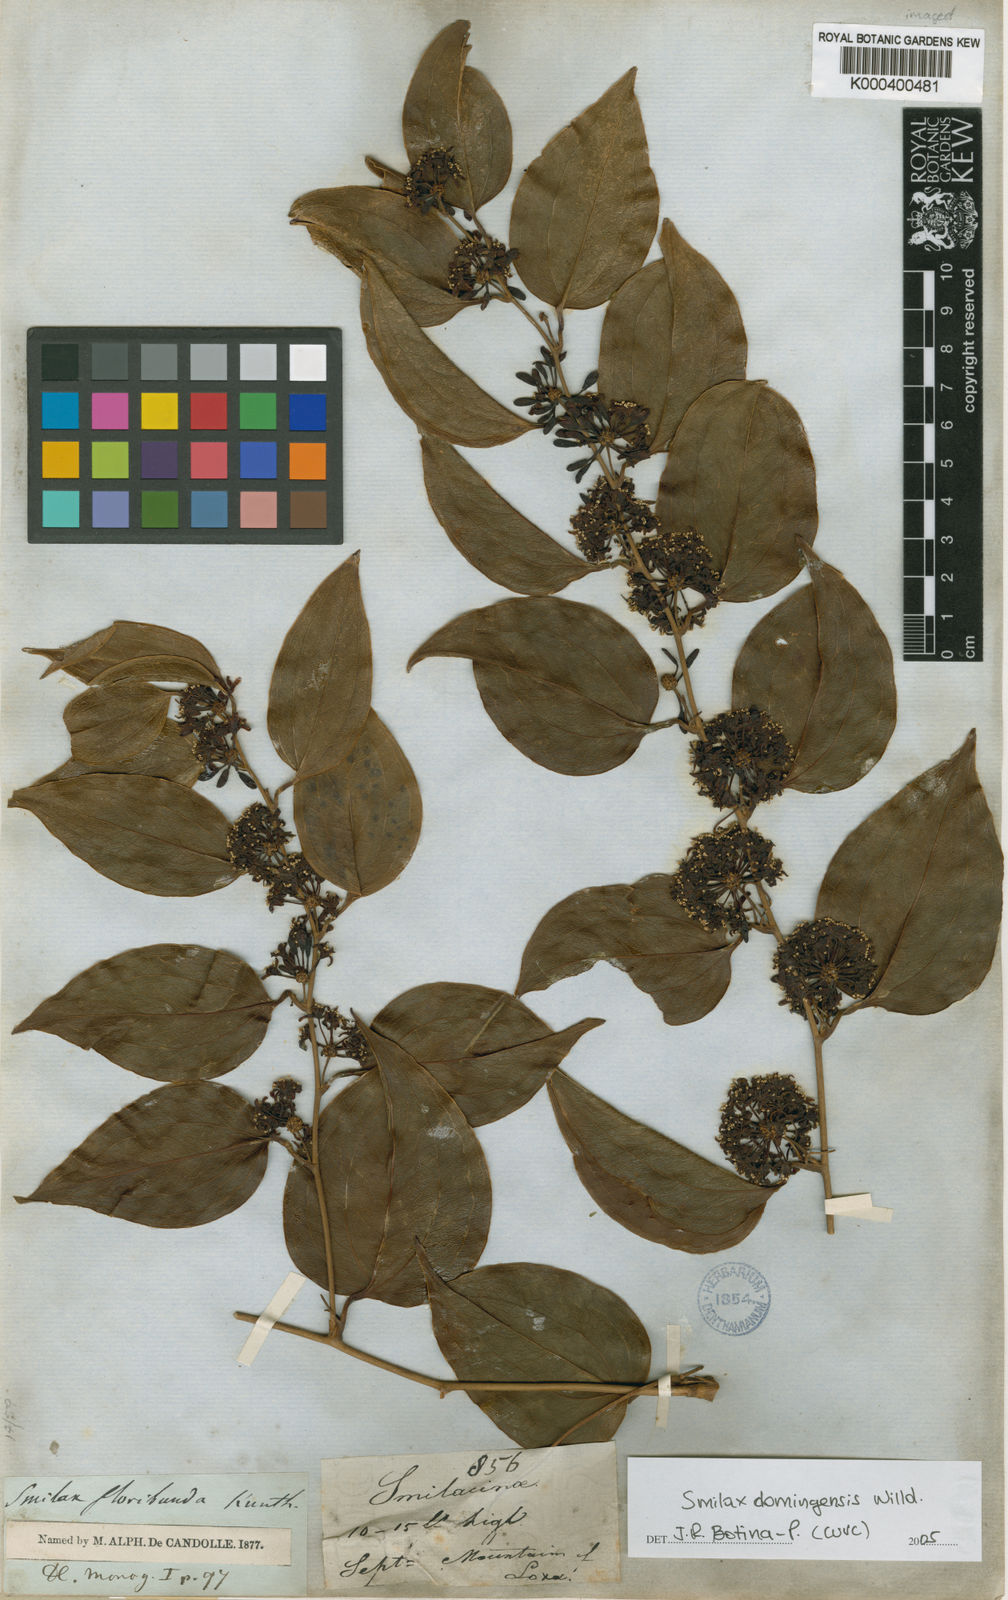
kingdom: Plantae
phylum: Tracheophyta
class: Liliopsida
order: Liliales
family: Smilacaceae
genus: Smilax
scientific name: Smilax domingensis
